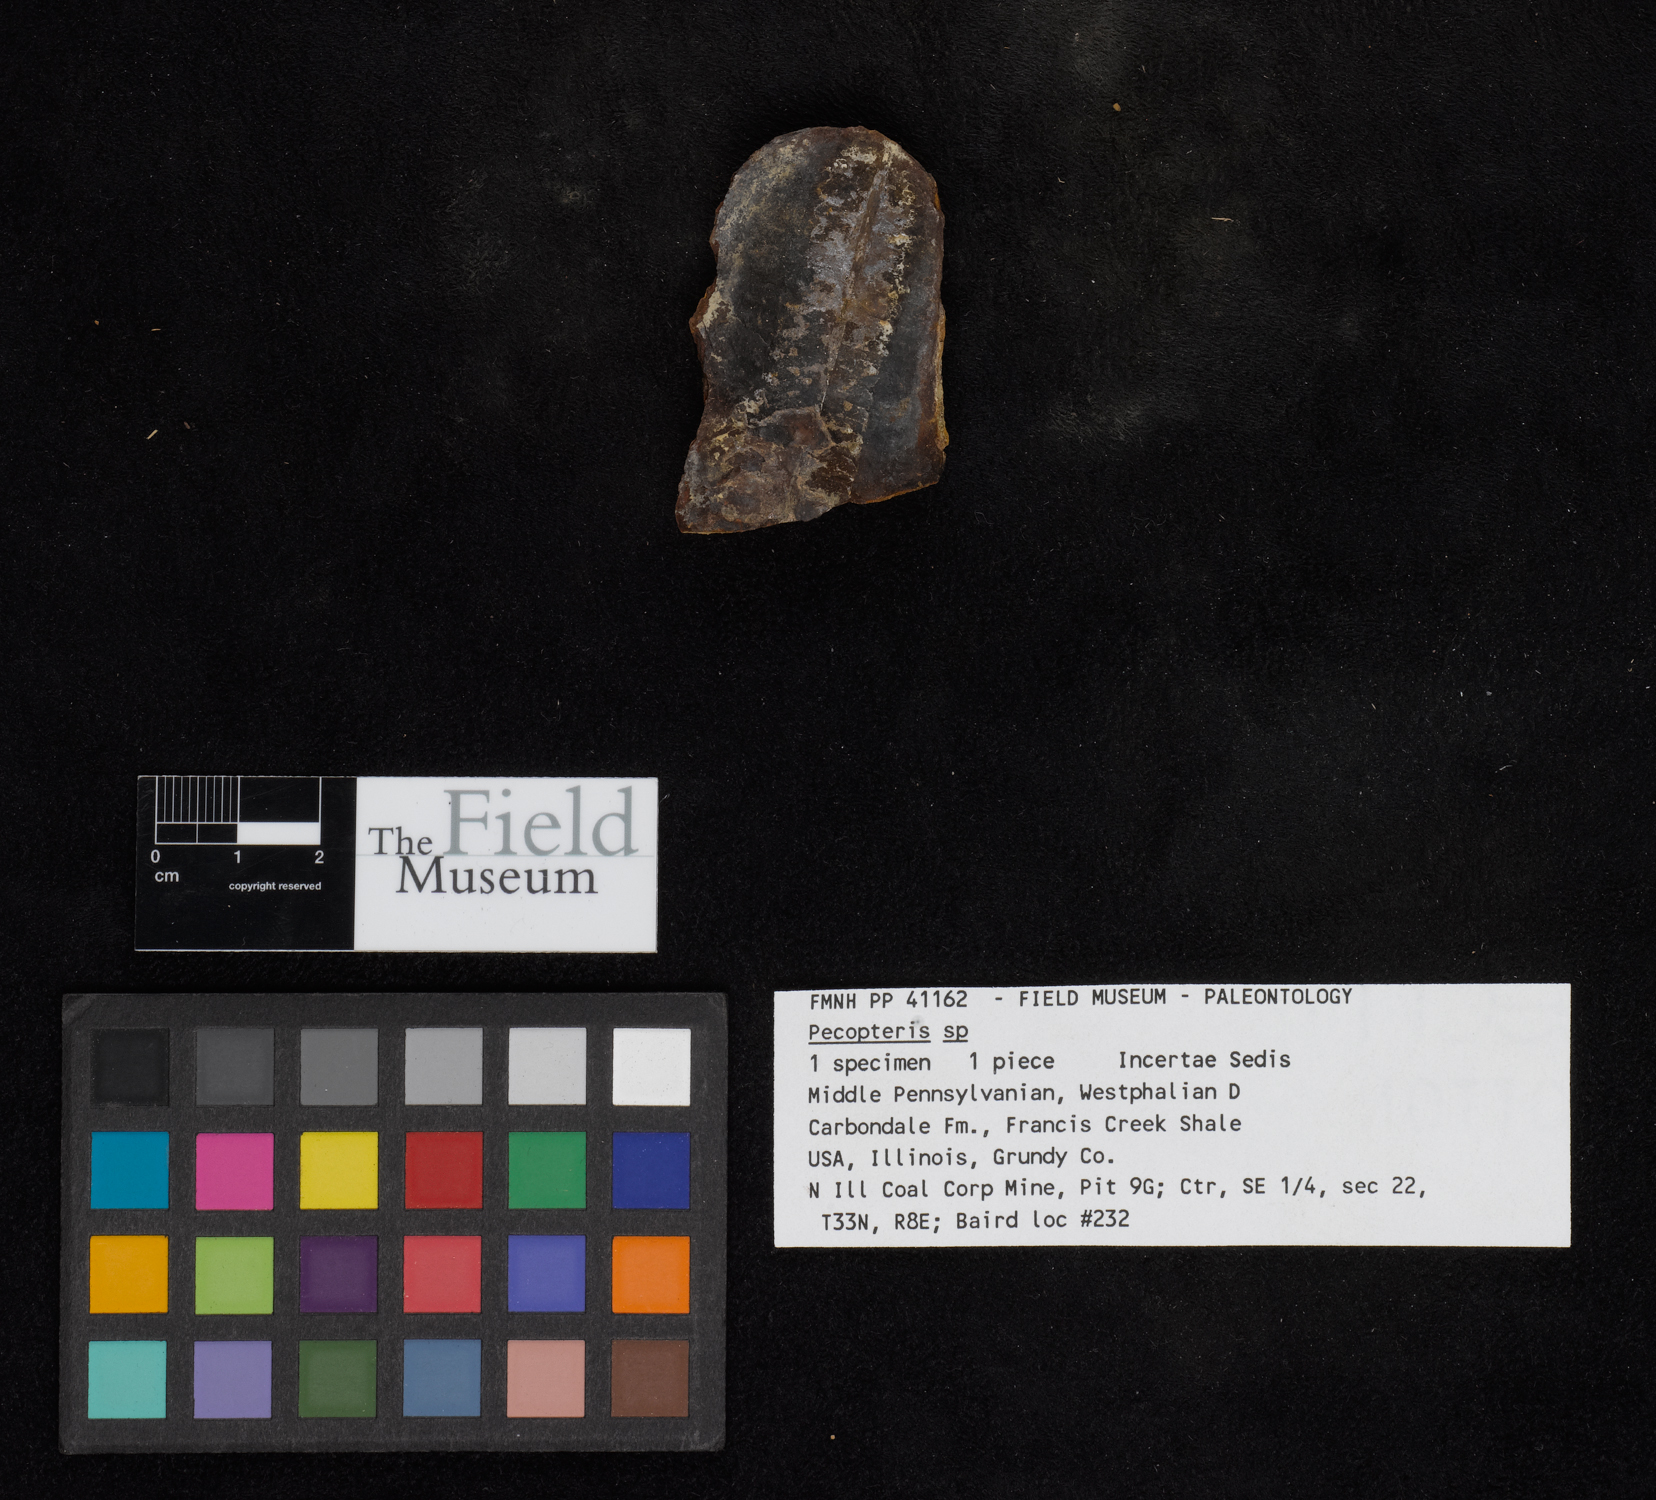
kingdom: Plantae
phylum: Tracheophyta
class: Polypodiopsida
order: Marattiales
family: Asterothecaceae
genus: Pecopteris
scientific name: Pecopteris
